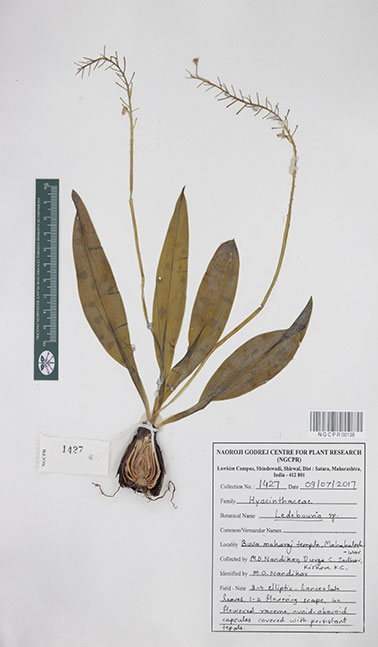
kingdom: Plantae
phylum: Tracheophyta
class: Liliopsida
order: Asparagales
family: Asparagaceae
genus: Ledebouria
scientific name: Ledebouria
